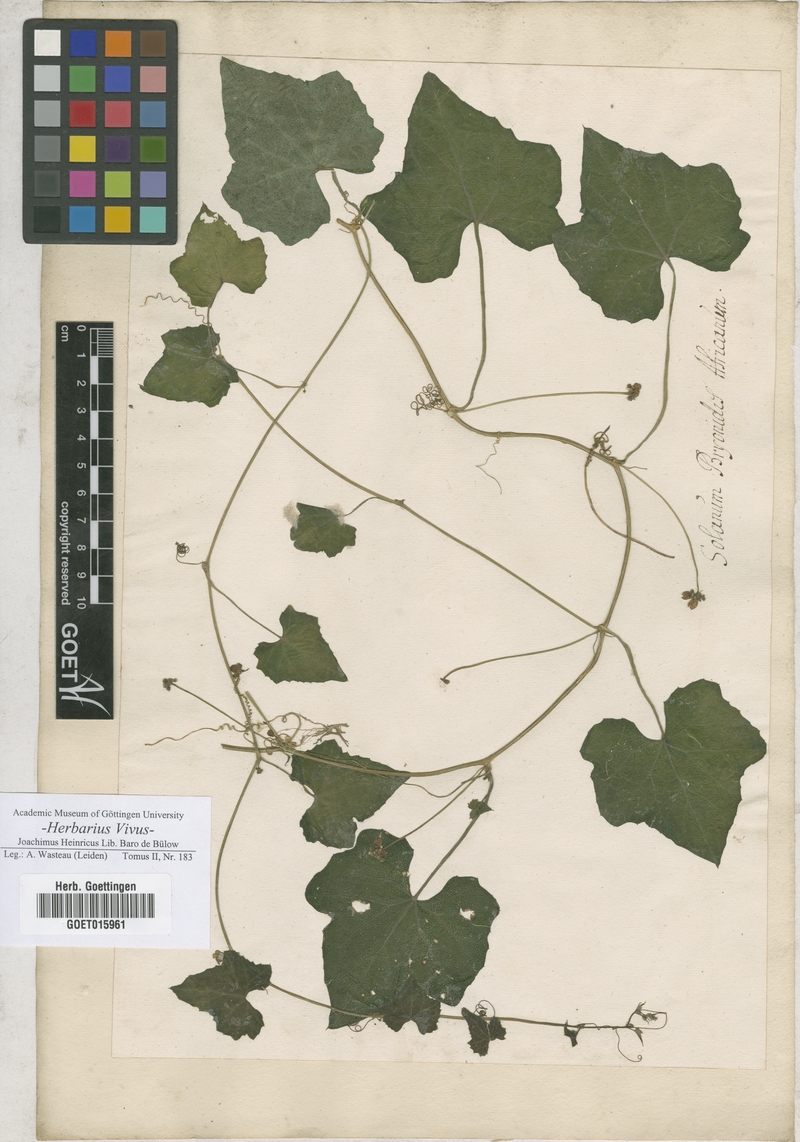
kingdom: Plantae
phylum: Tracheophyta
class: Magnoliopsida
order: Solanales
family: Solanaceae
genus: Solanum
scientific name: Solanum
